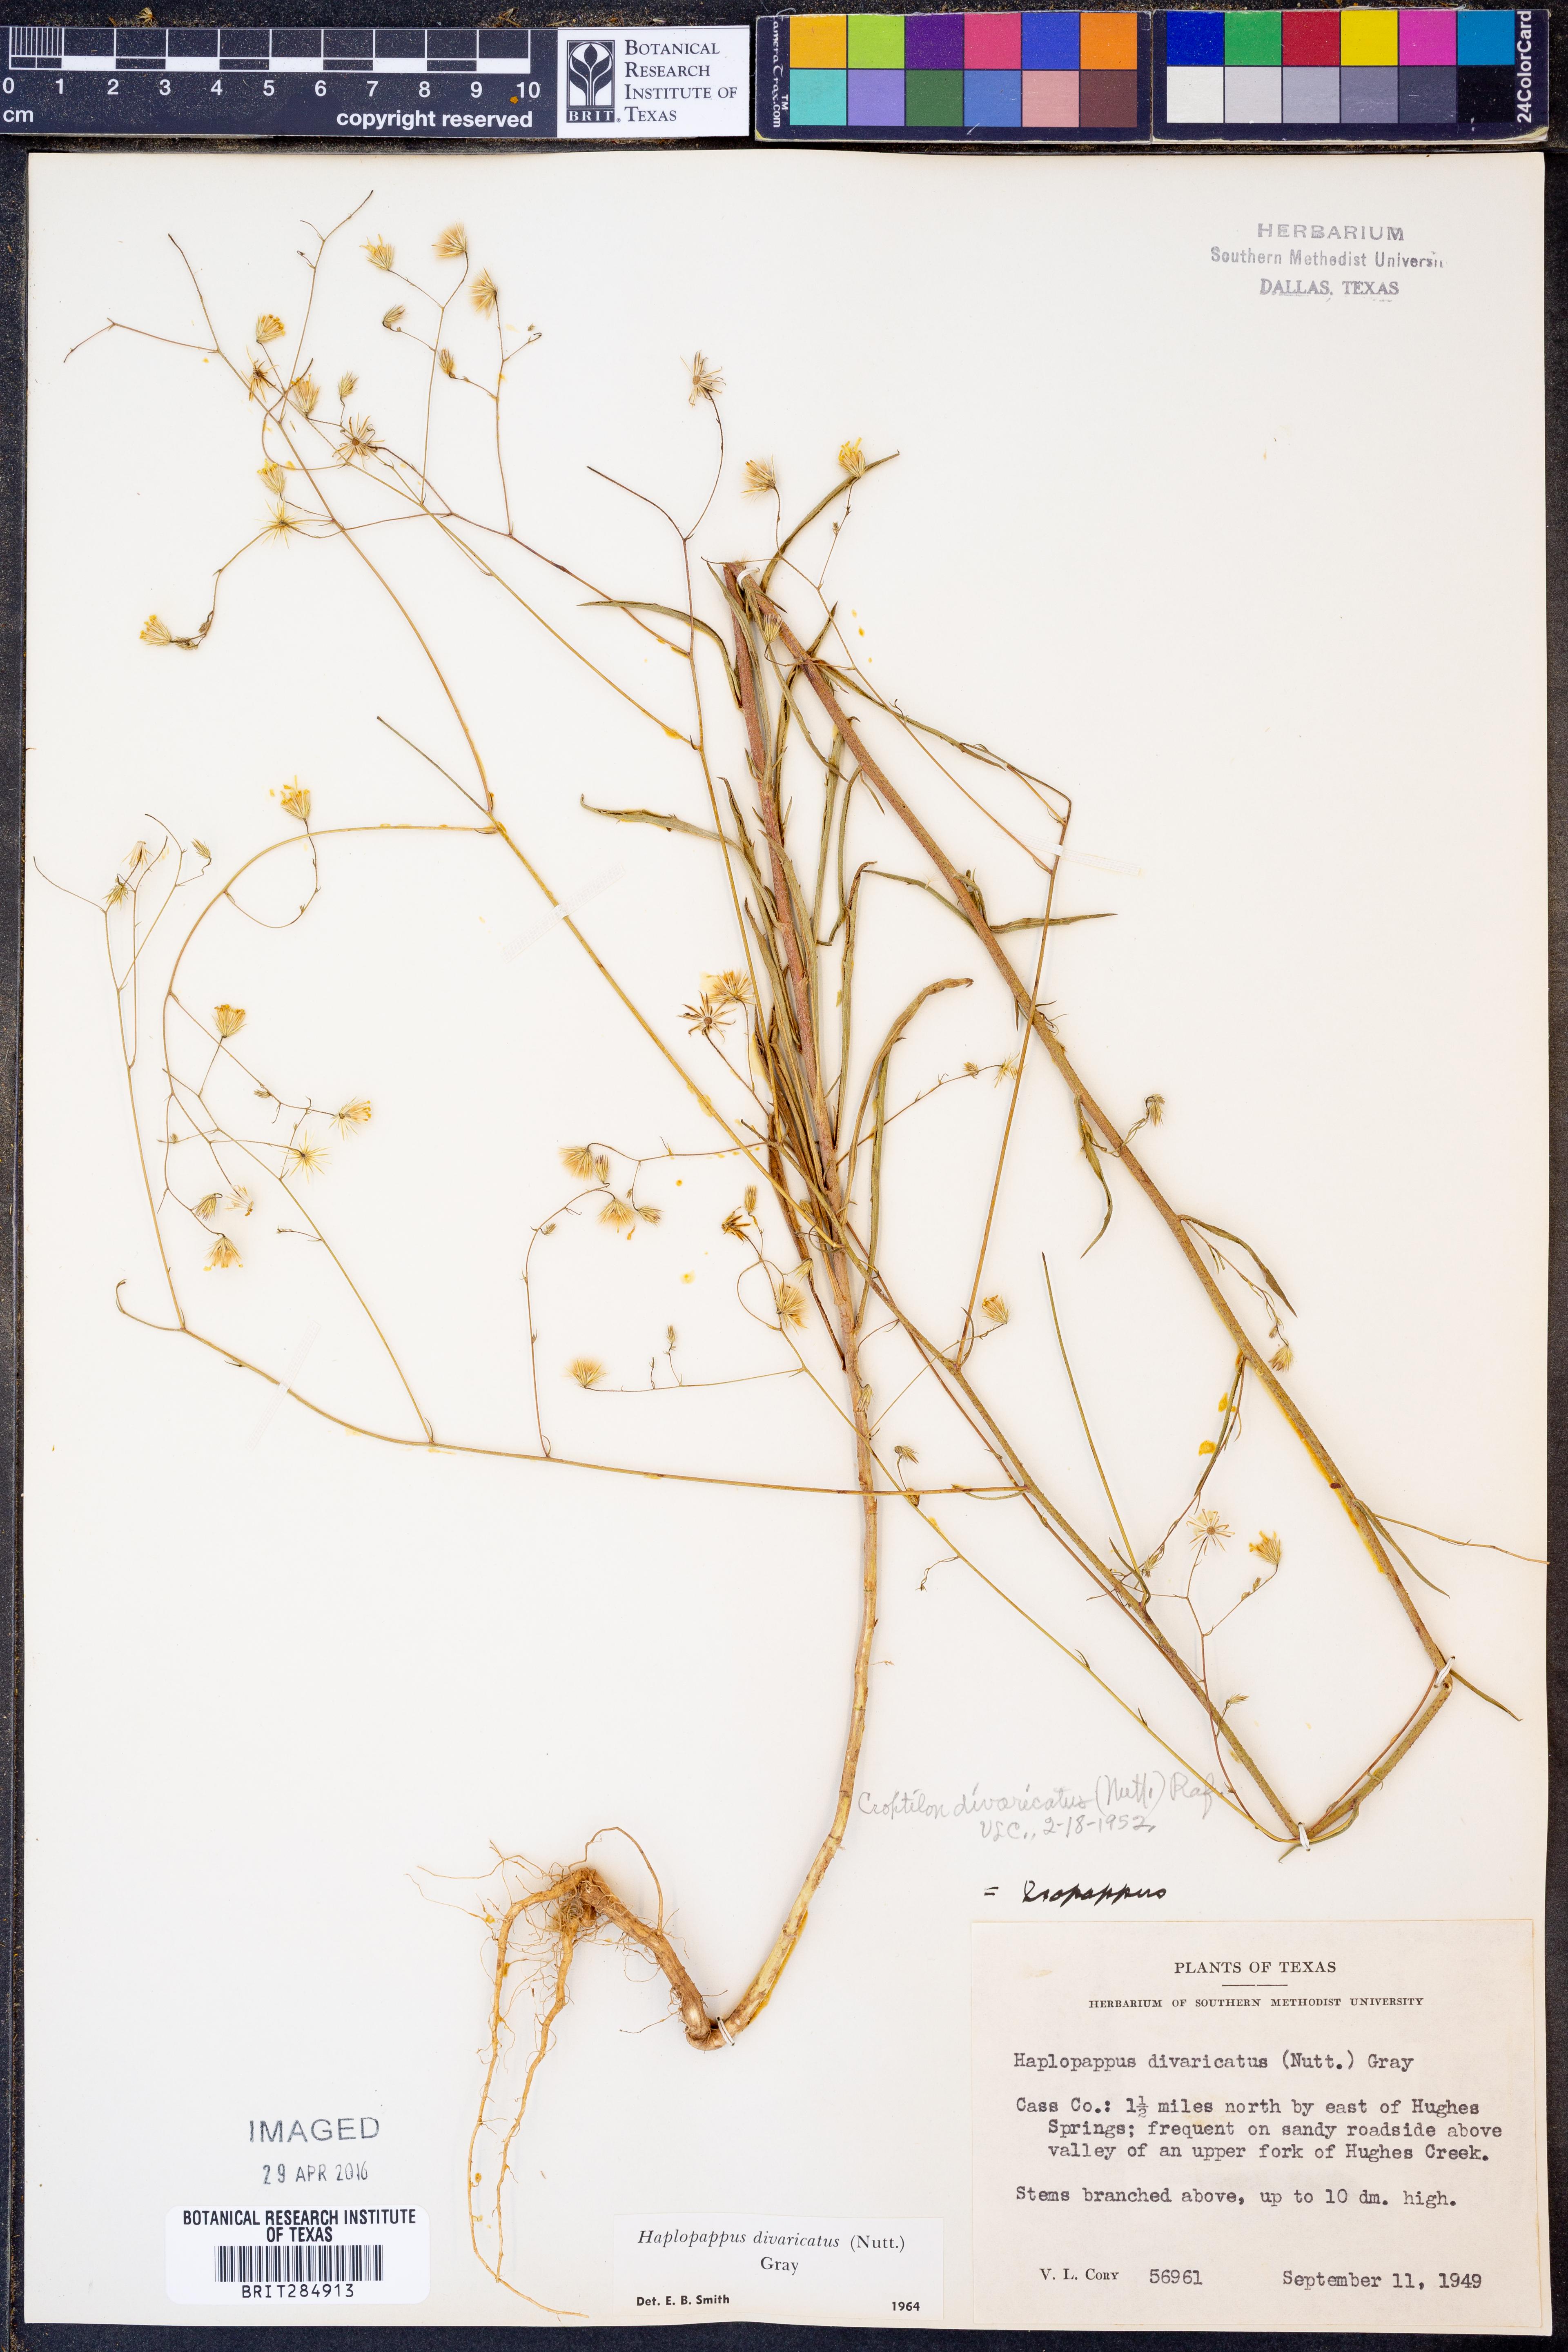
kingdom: Plantae
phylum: Tracheophyta
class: Magnoliopsida
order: Asterales
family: Asteraceae
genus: Croptilon
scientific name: Croptilon divaricatum
